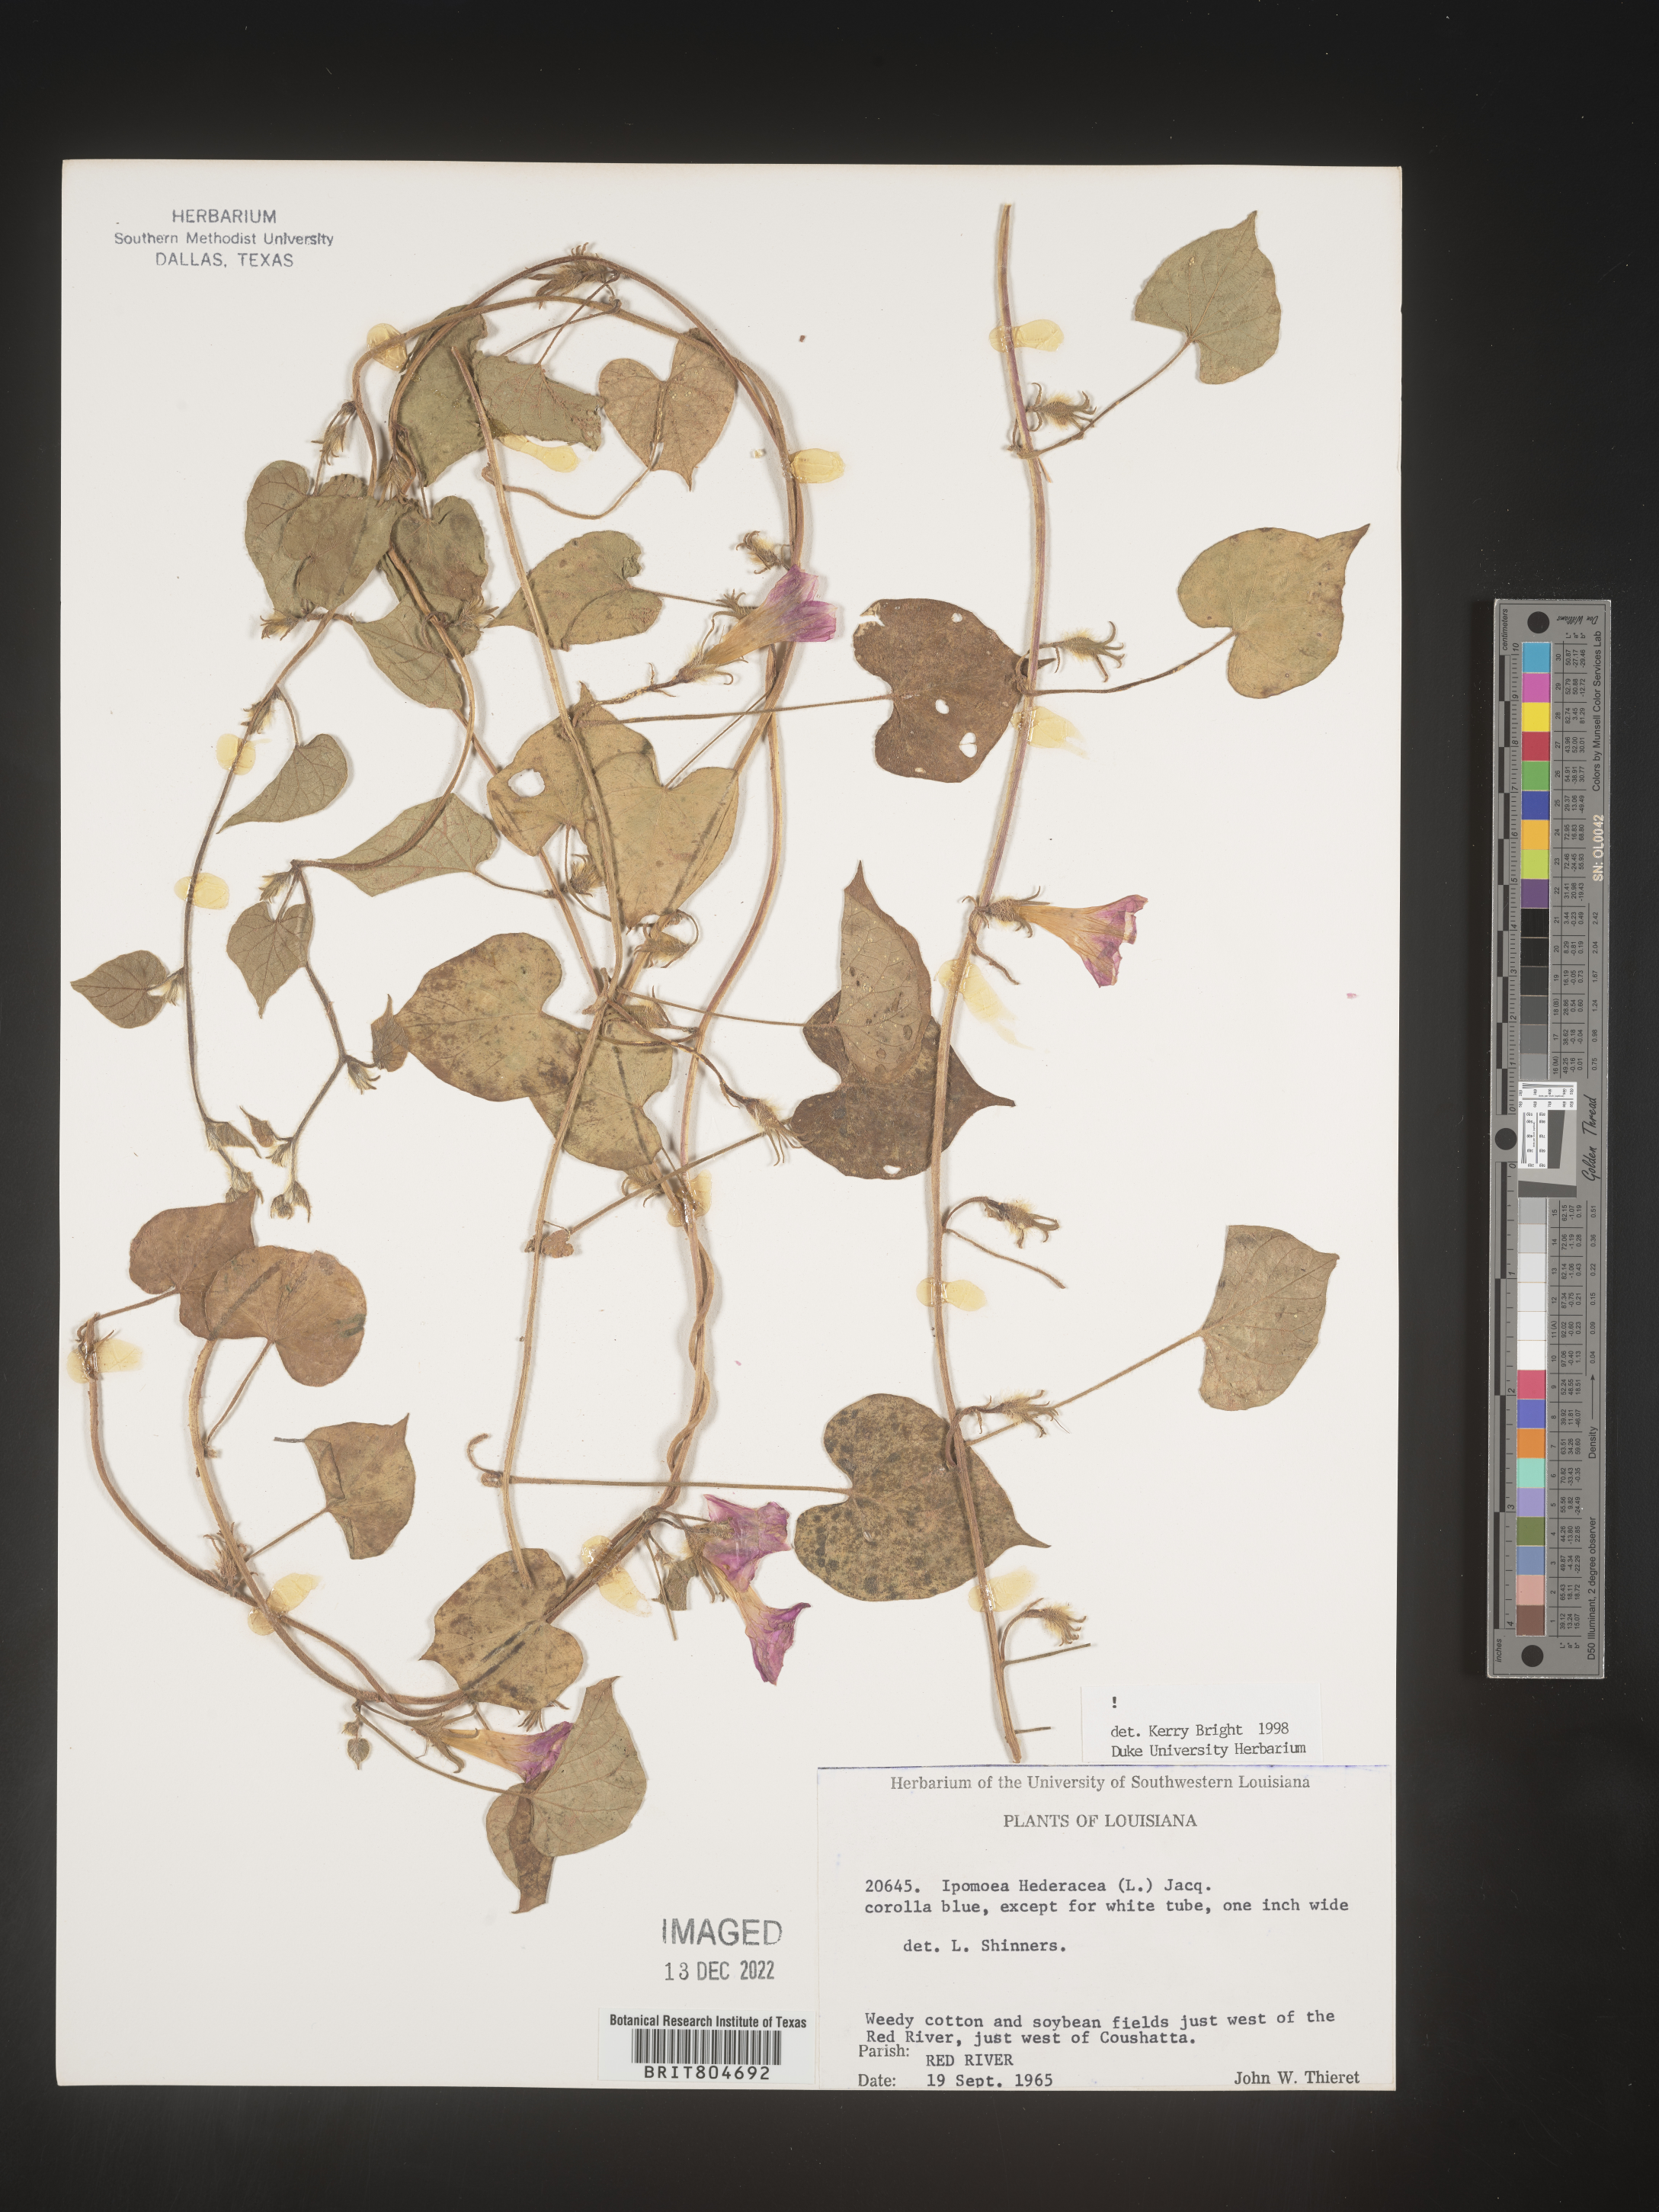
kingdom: Plantae
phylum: Tracheophyta
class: Magnoliopsida
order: Solanales
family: Convolvulaceae
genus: Ipomoea
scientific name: Ipomoea hederacea
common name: Ivy-leaved morning-glory
